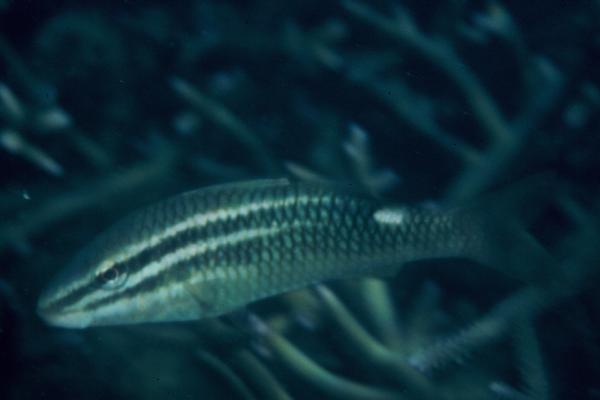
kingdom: Animalia
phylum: Chordata
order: Perciformes
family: Mullidae
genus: Parupeneus
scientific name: Parupeneus rubescens
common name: Rosy goatfish
